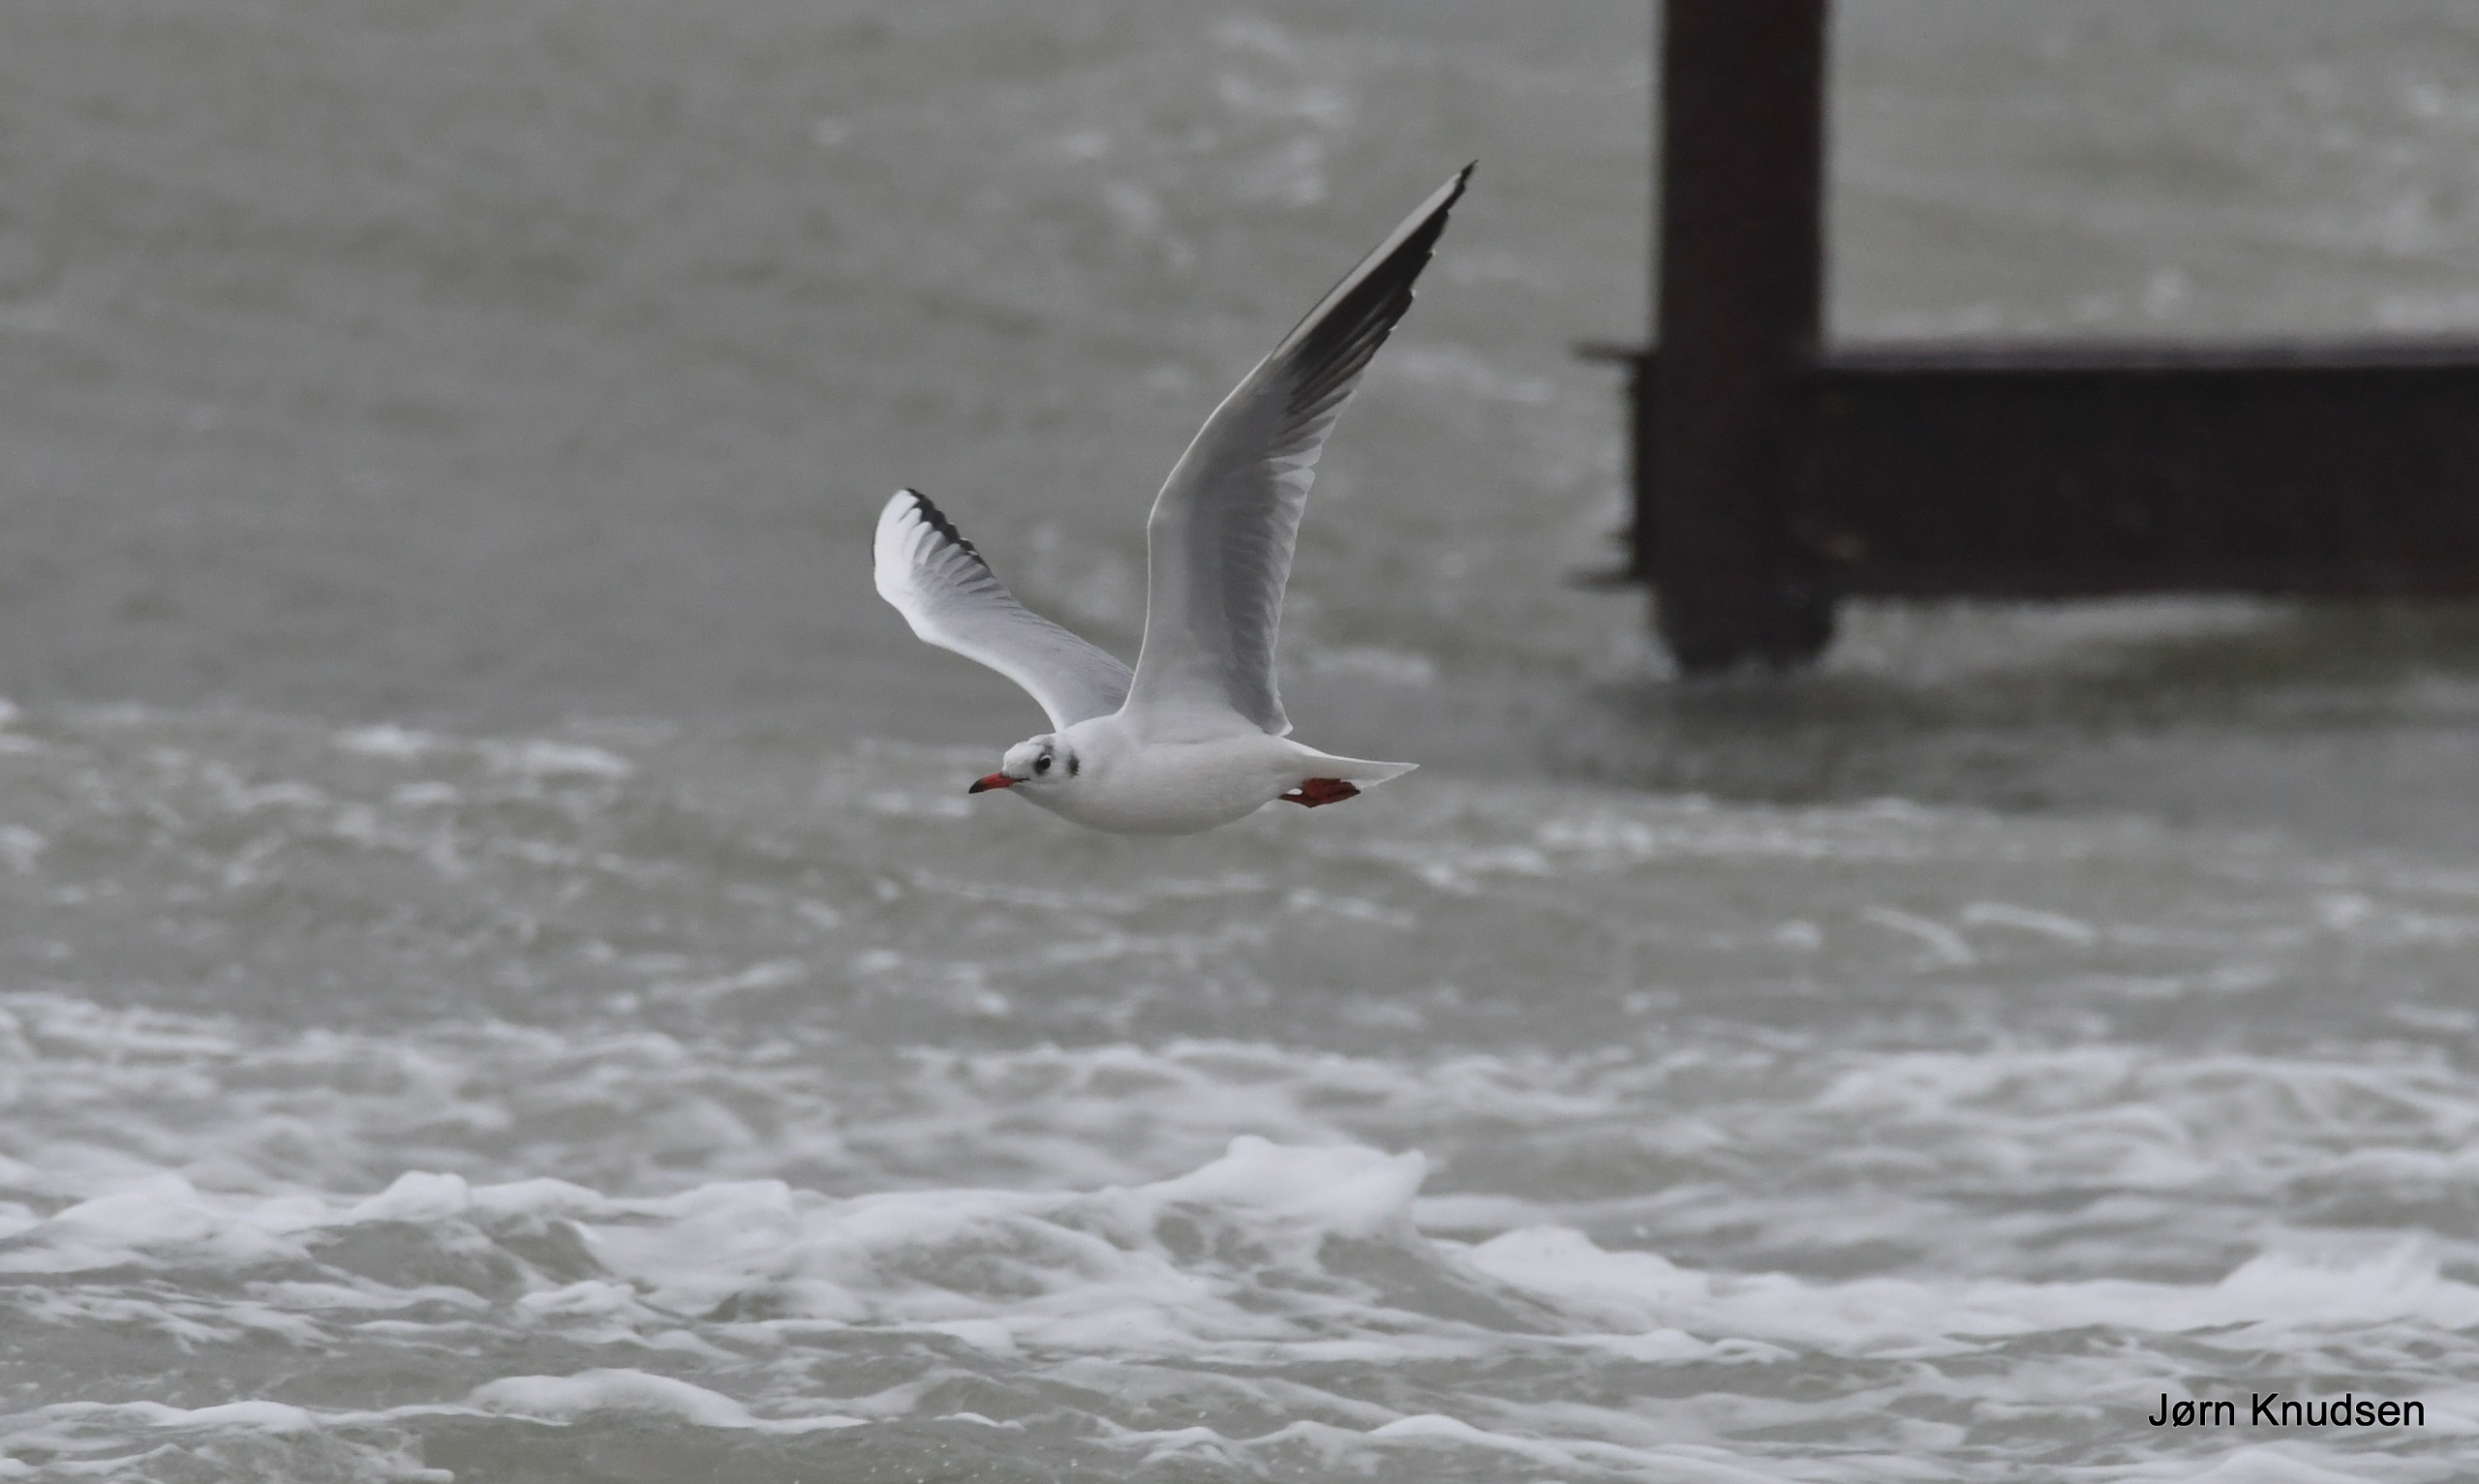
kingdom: Animalia
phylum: Chordata
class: Aves
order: Charadriiformes
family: Laridae
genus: Chroicocephalus
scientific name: Chroicocephalus ridibundus
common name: Hættemåge
